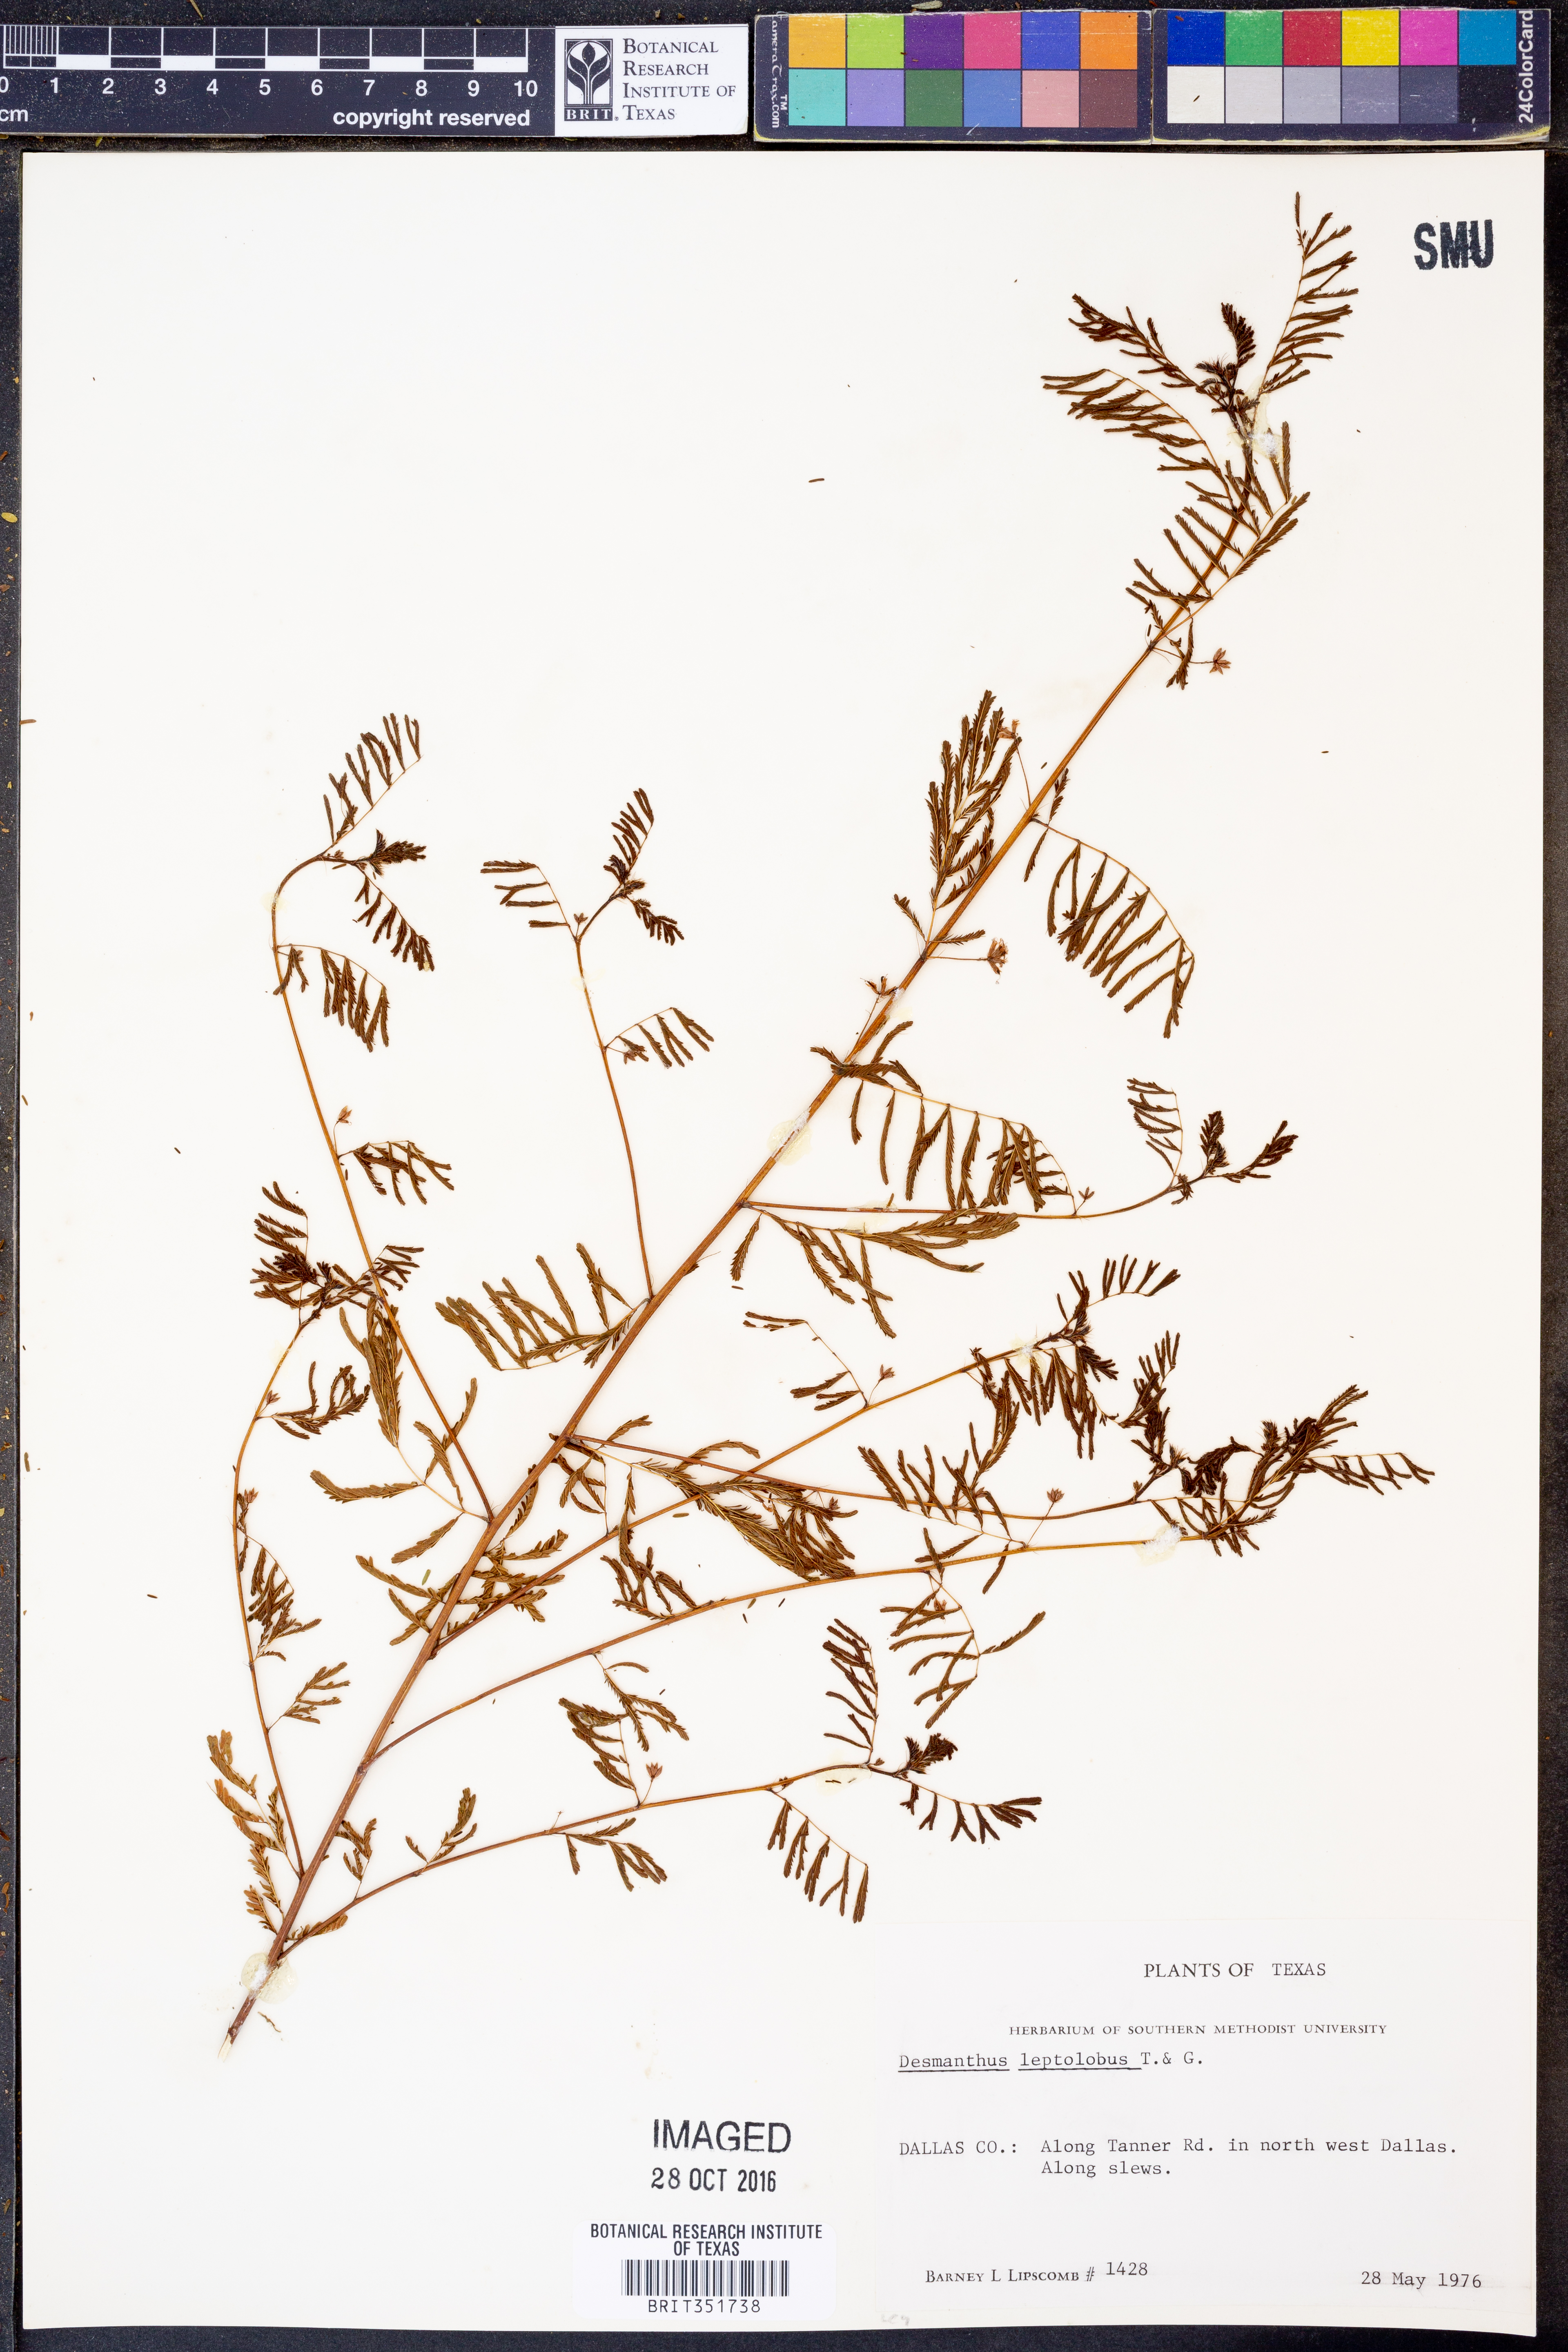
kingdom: Plantae
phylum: Tracheophyta
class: Magnoliopsida
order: Fabales
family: Fabaceae
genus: Desmanthus
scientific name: Desmanthus leptolobus
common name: Prairie-mimosa
